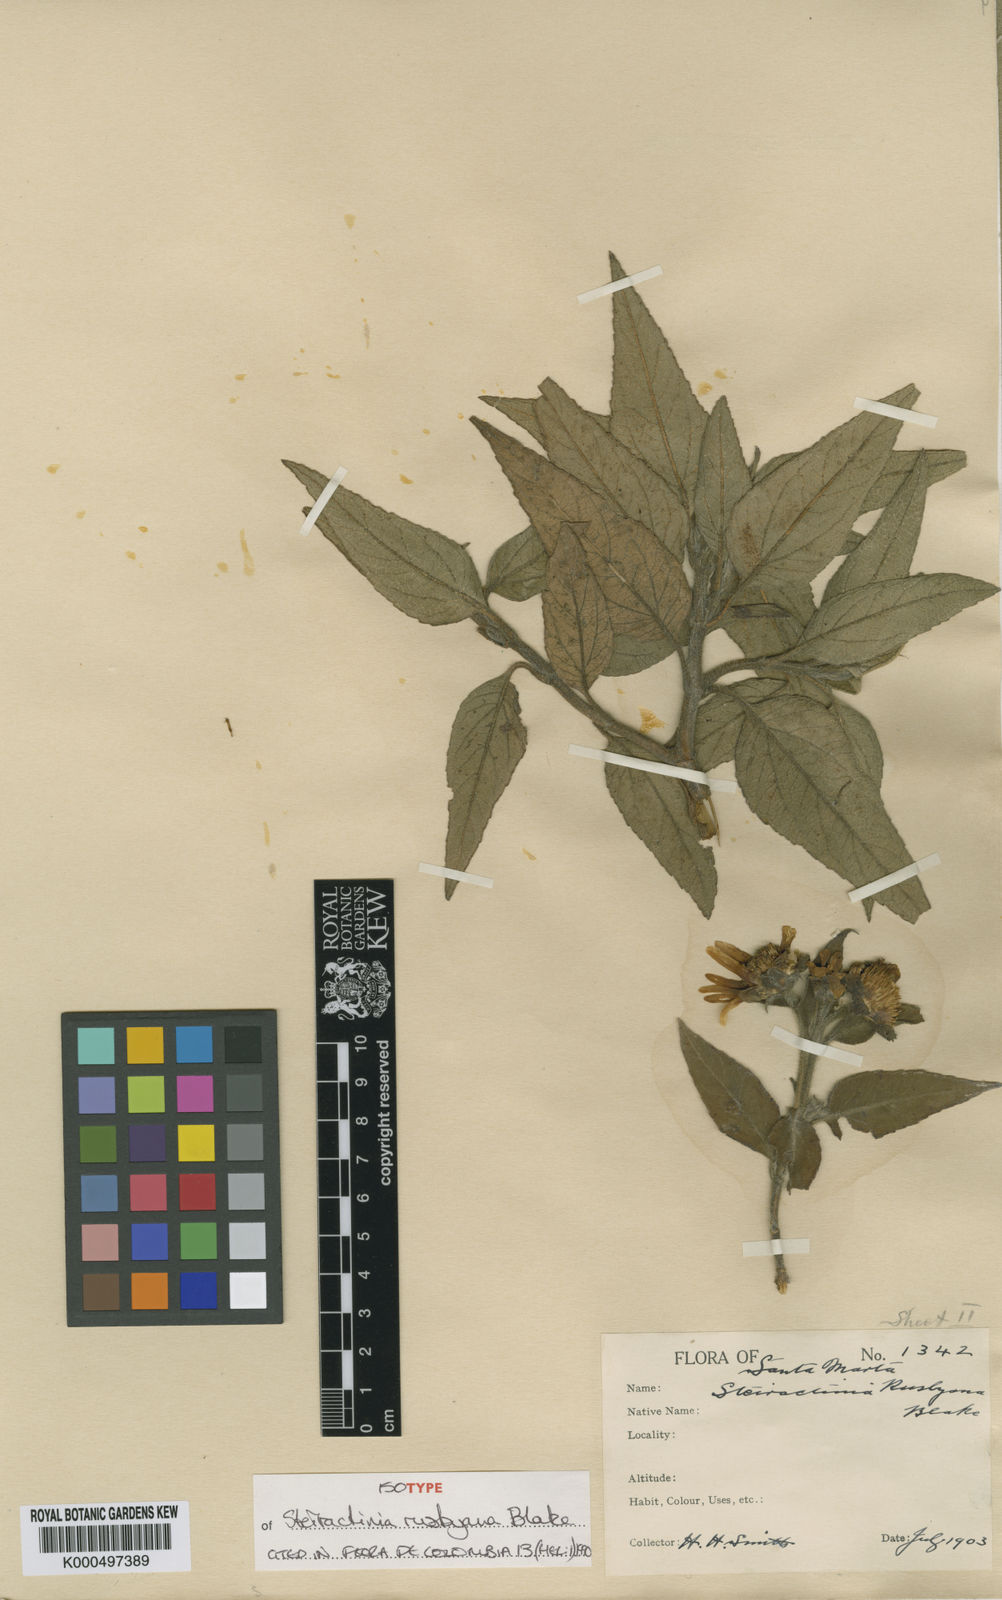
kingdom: Plantae
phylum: Tracheophyta
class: Magnoliopsida
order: Asterales
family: Asteraceae
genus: Steiractinia
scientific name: Steiractinia rusbyana
